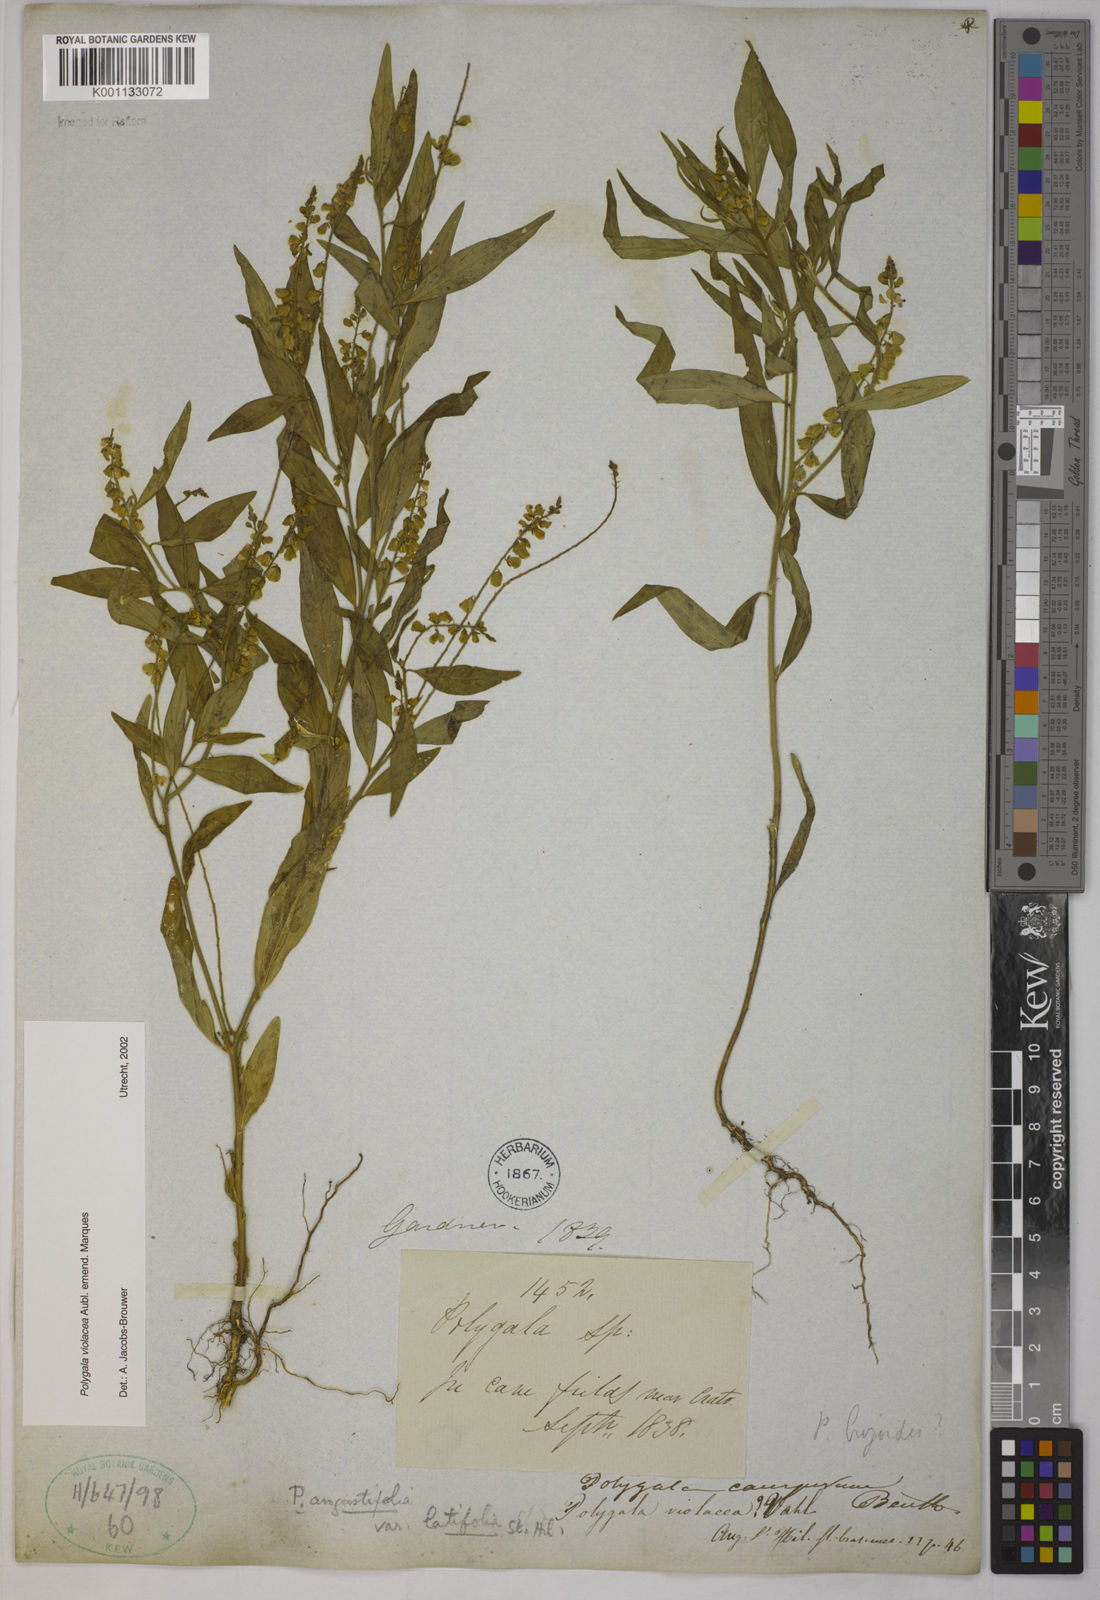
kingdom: Plantae
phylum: Tracheophyta
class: Magnoliopsida
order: Fabales
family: Polygalaceae
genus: Polygala
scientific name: Polygala
